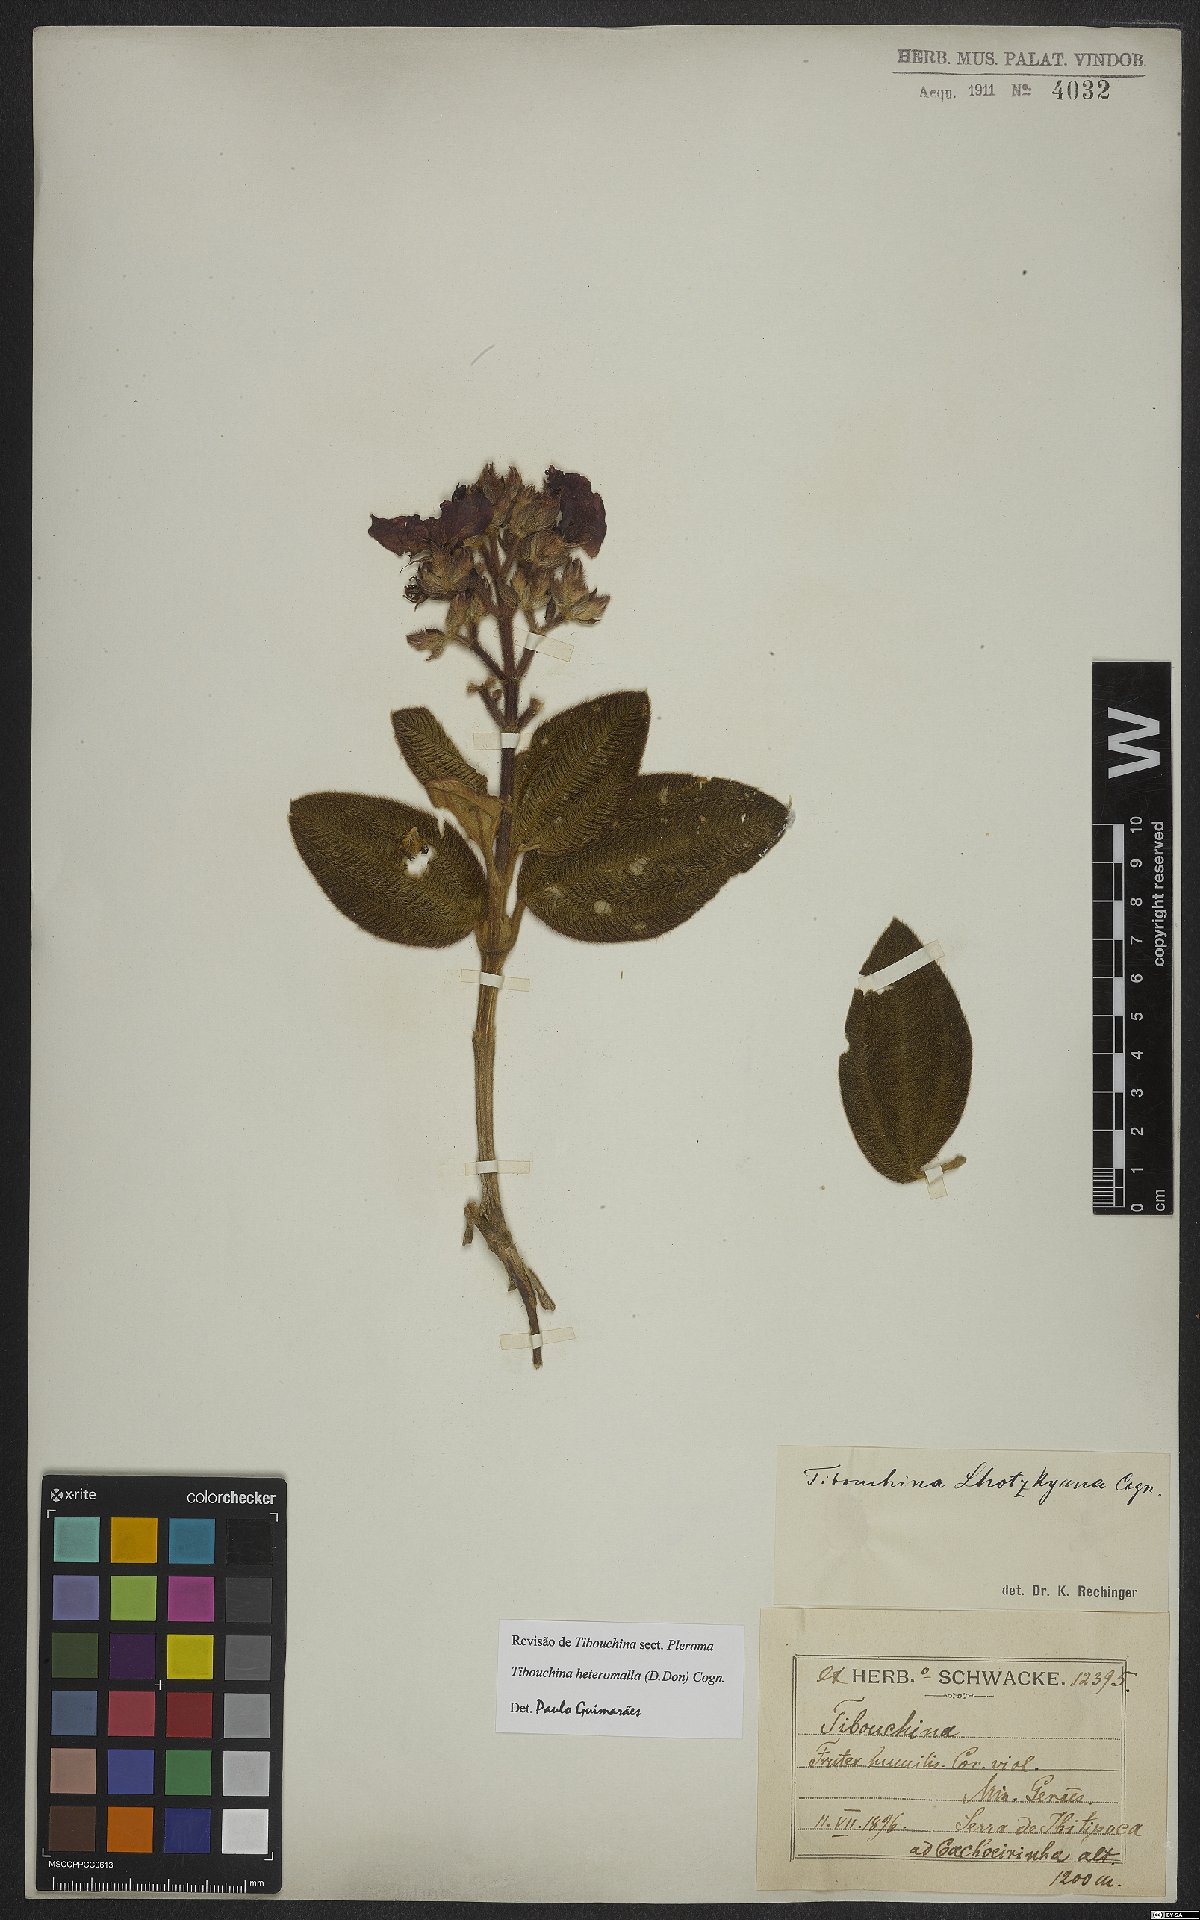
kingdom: Plantae
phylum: Tracheophyta
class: Magnoliopsida
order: Myrtales
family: Melastomataceae
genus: Pleroma
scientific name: Pleroma heteromallum
